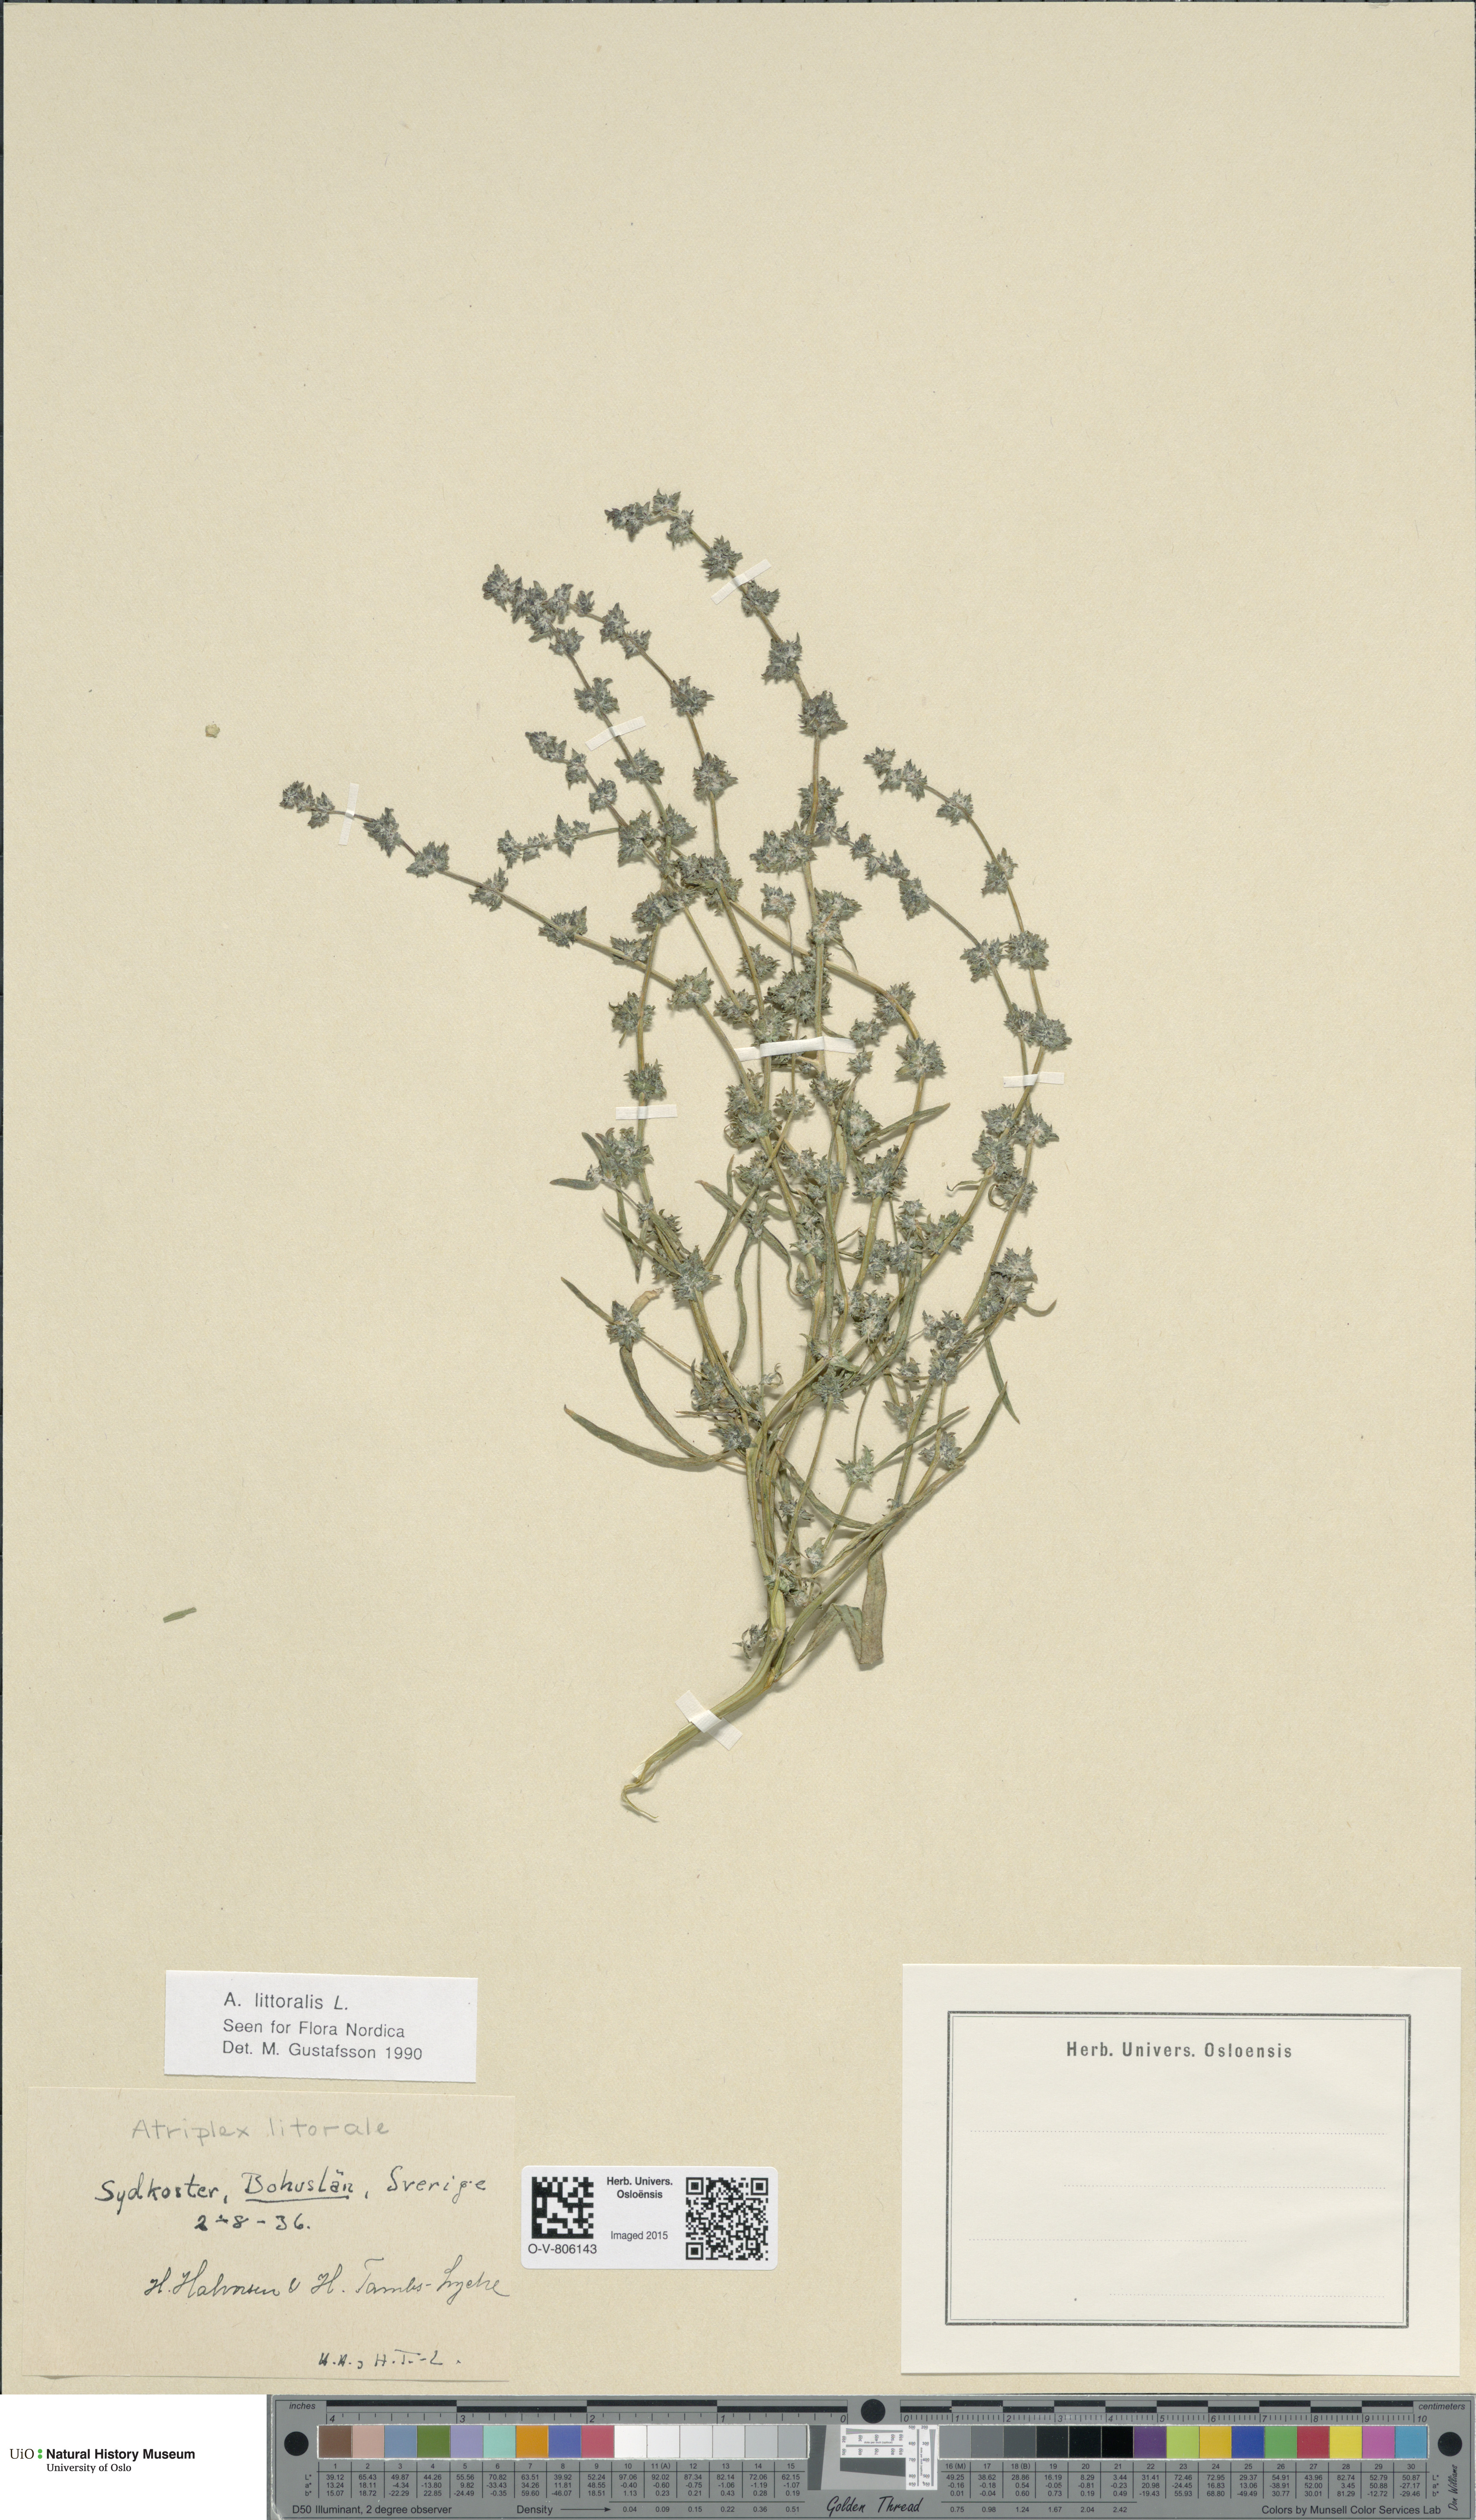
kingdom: Plantae
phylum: Tracheophyta
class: Magnoliopsida
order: Caryophyllales
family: Amaranthaceae
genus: Atriplex
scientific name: Atriplex littoralis
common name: Grass-leaved orache
